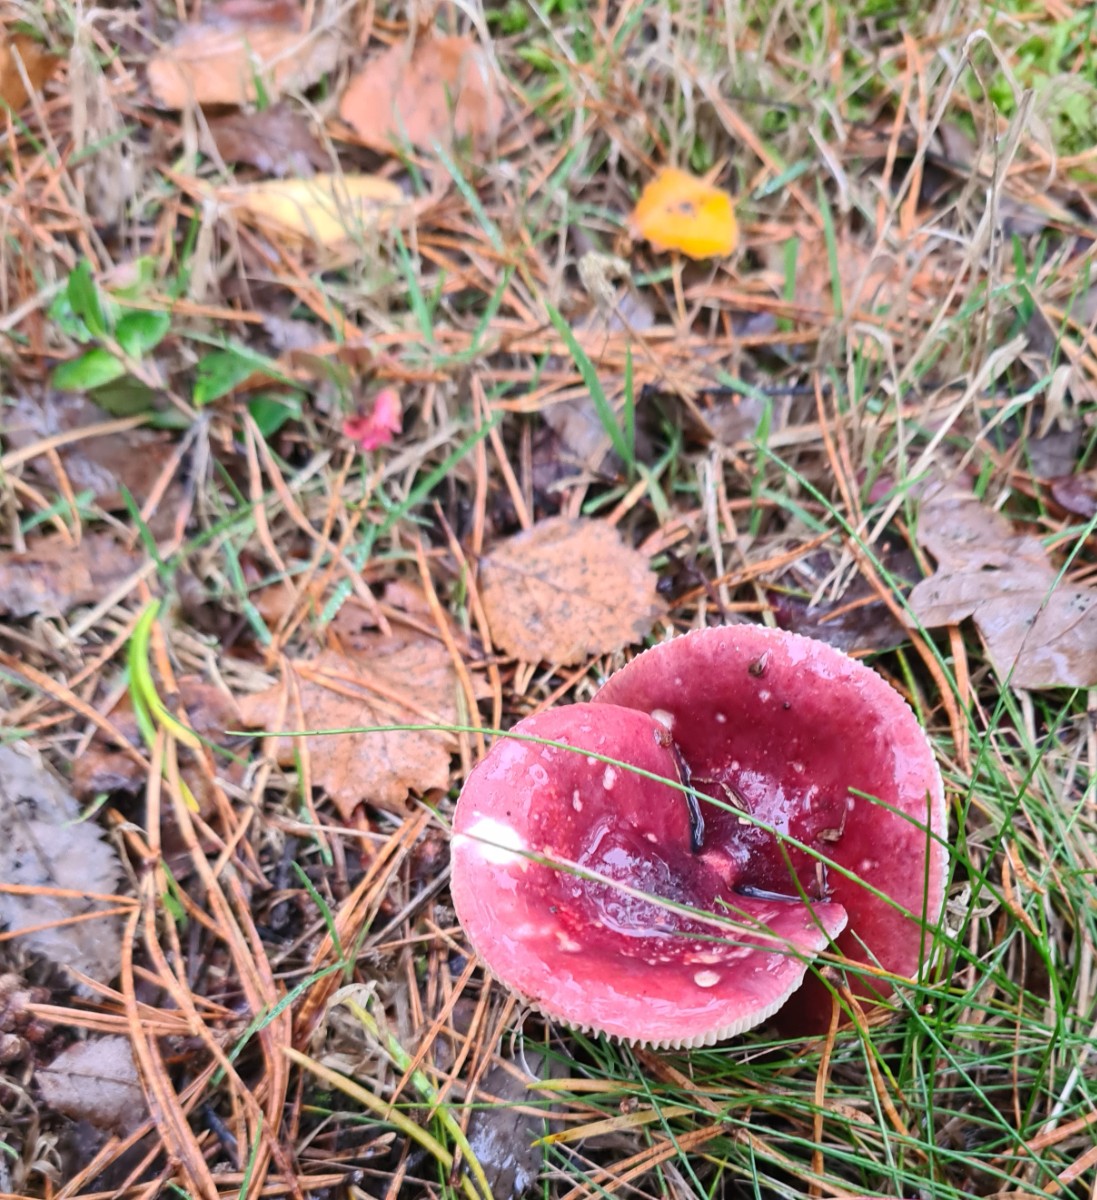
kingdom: Fungi
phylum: Basidiomycota
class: Agaricomycetes
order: Russulales
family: Russulaceae
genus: Russula
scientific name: Russula
